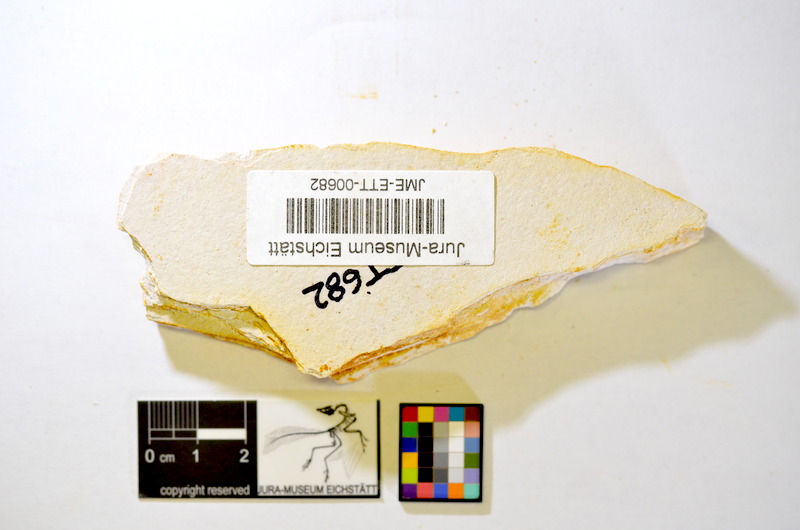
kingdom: Animalia
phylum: Chordata
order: Salmoniformes
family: Orthogonikleithridae
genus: Orthogonikleithrus
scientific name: Orthogonikleithrus hoelli
